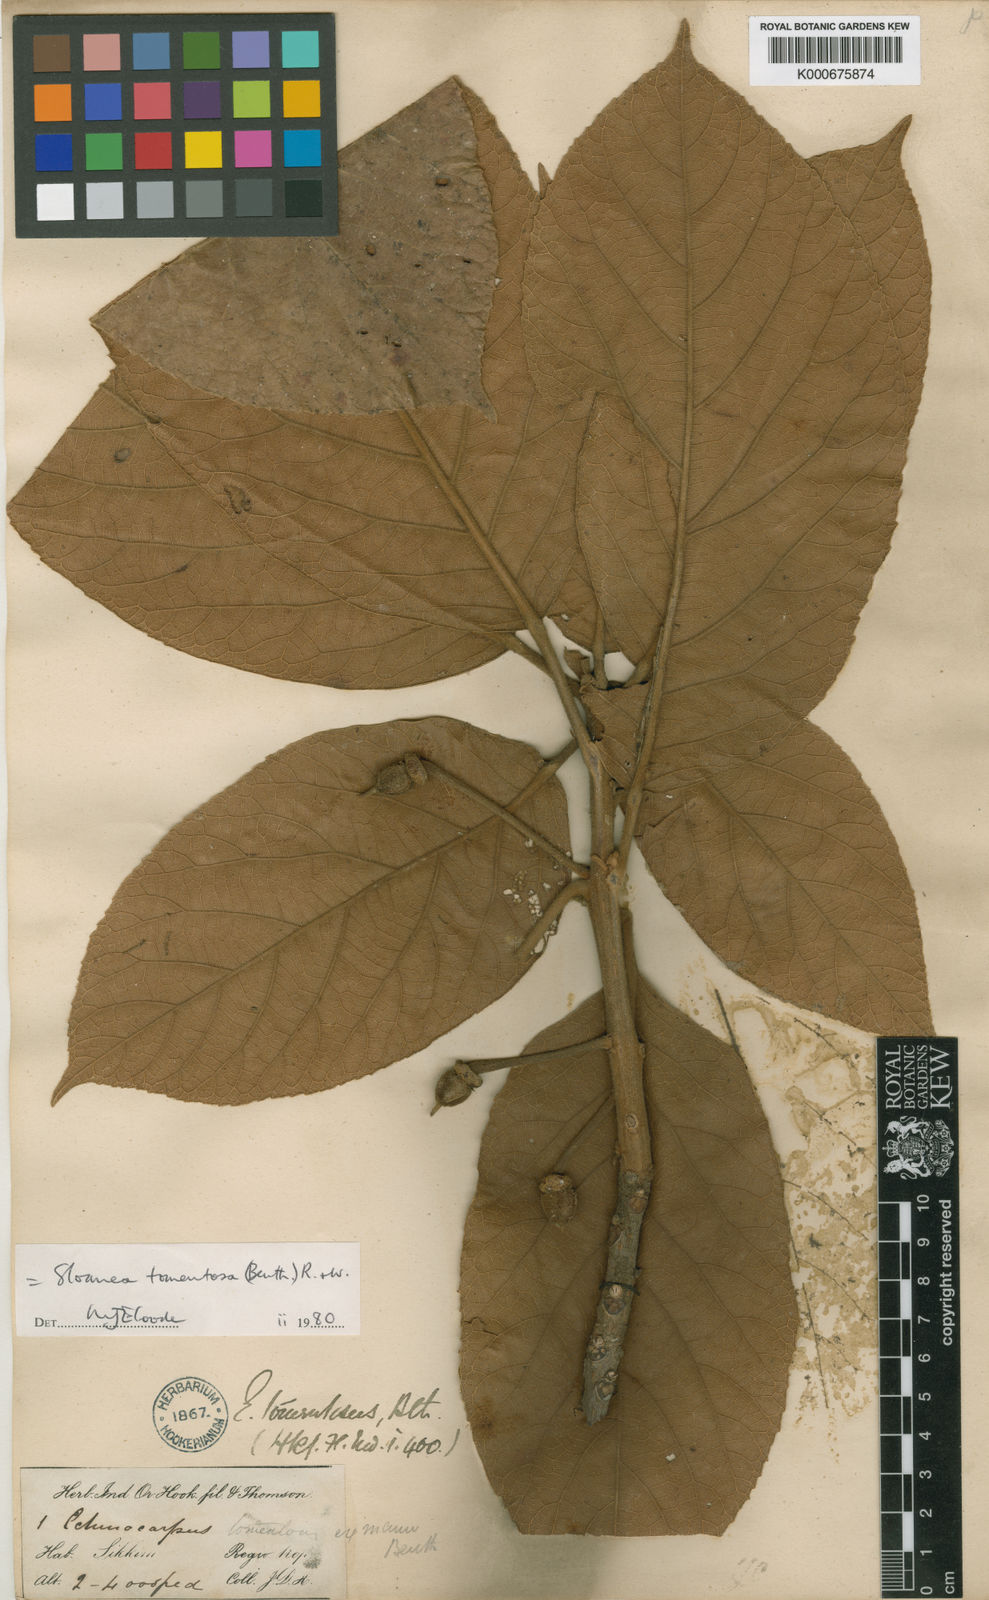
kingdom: Plantae
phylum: Tracheophyta
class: Magnoliopsida
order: Oxalidales
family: Elaeocarpaceae
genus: Sloanea
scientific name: Sloanea tomentosa
